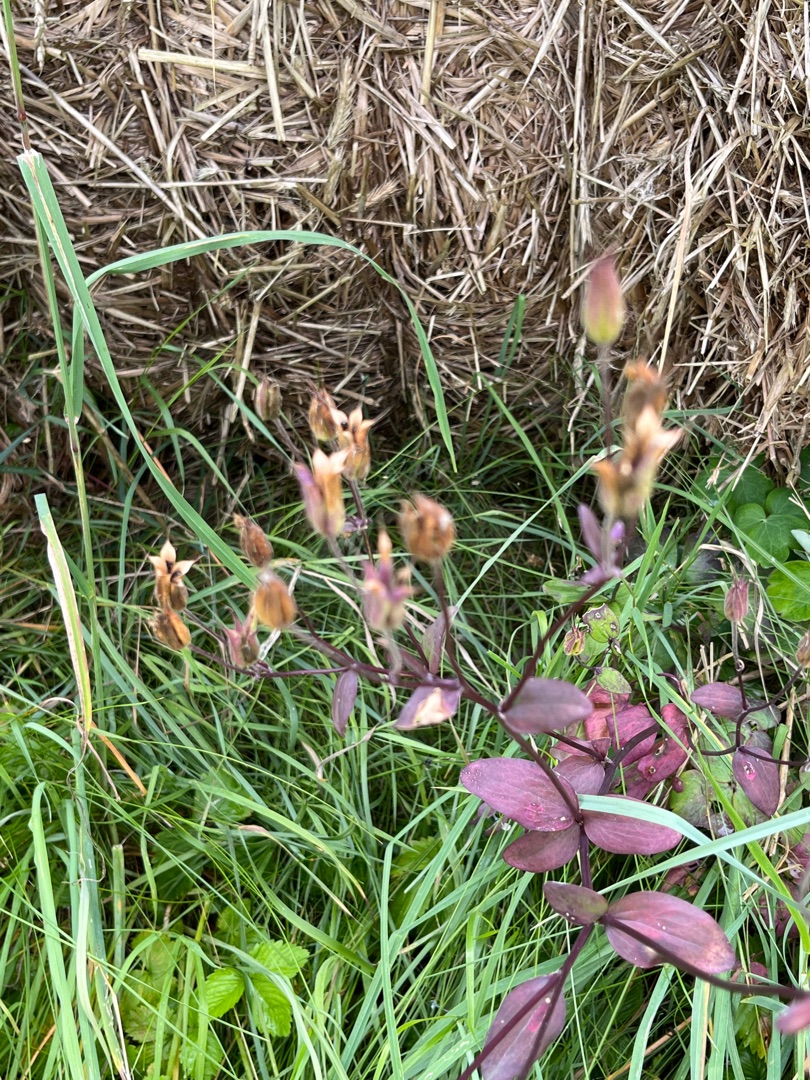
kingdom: Plantae
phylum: Tracheophyta
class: Magnoliopsida
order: Ranunculales
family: Ranunculaceae
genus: Aquilegia
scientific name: Aquilegia vulgaris
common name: Akeleje
